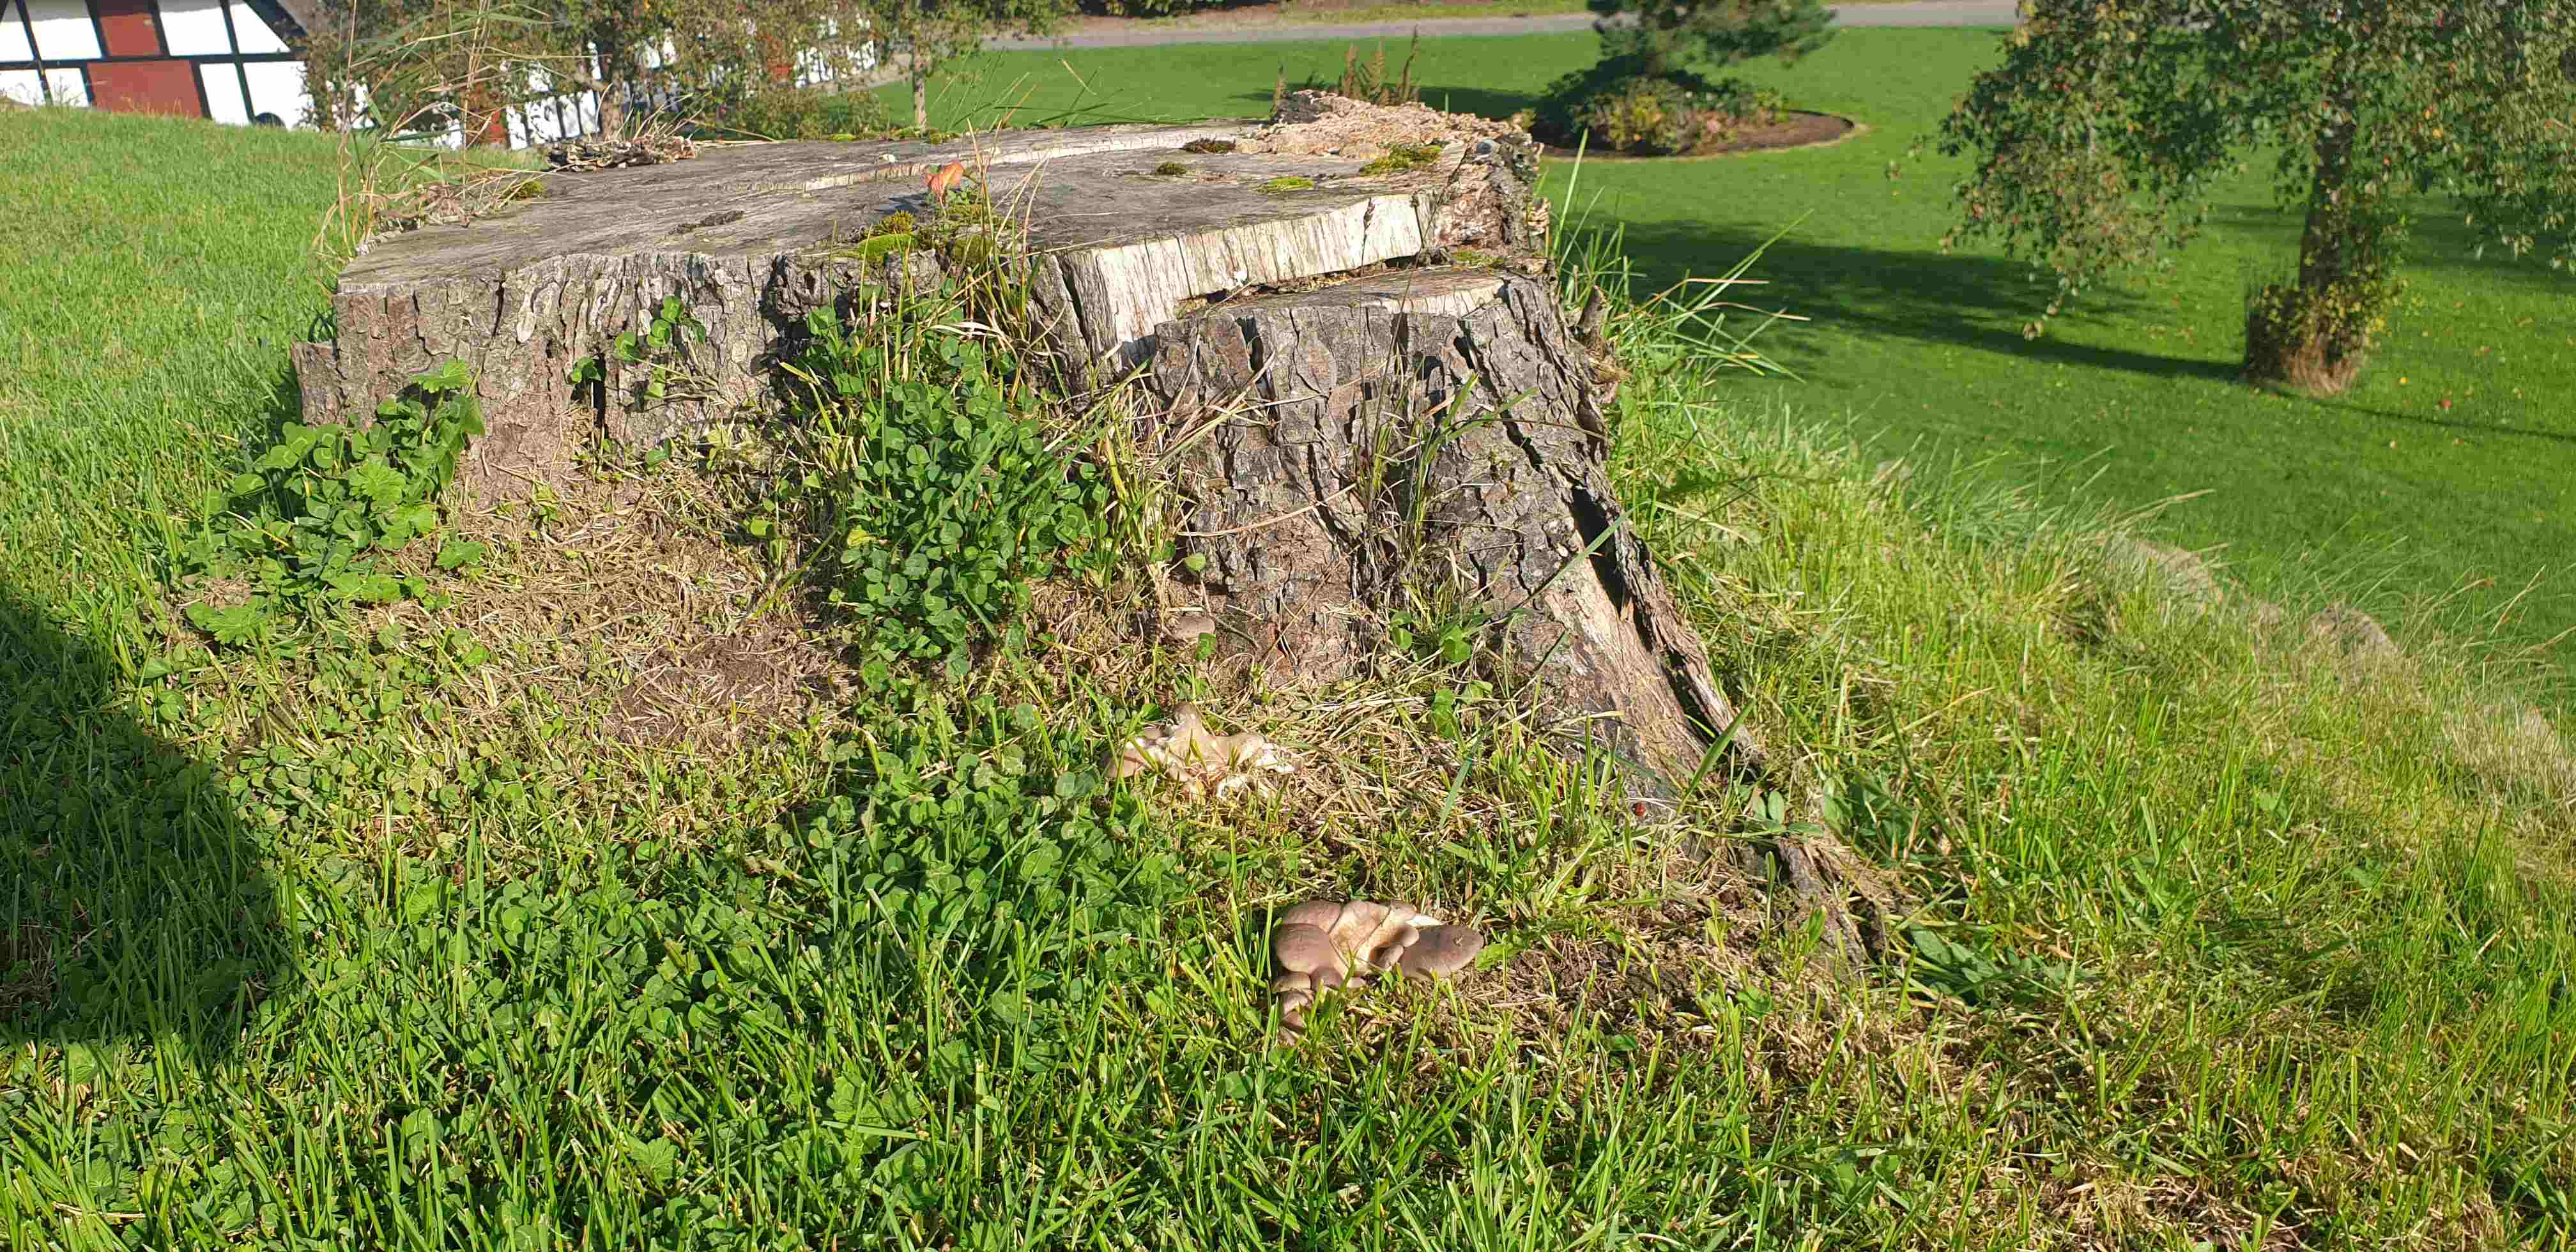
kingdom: Fungi
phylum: Basidiomycota
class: Agaricomycetes
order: Agaricales
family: Pleurotaceae
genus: Pleurotus
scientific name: Pleurotus ostreatus
